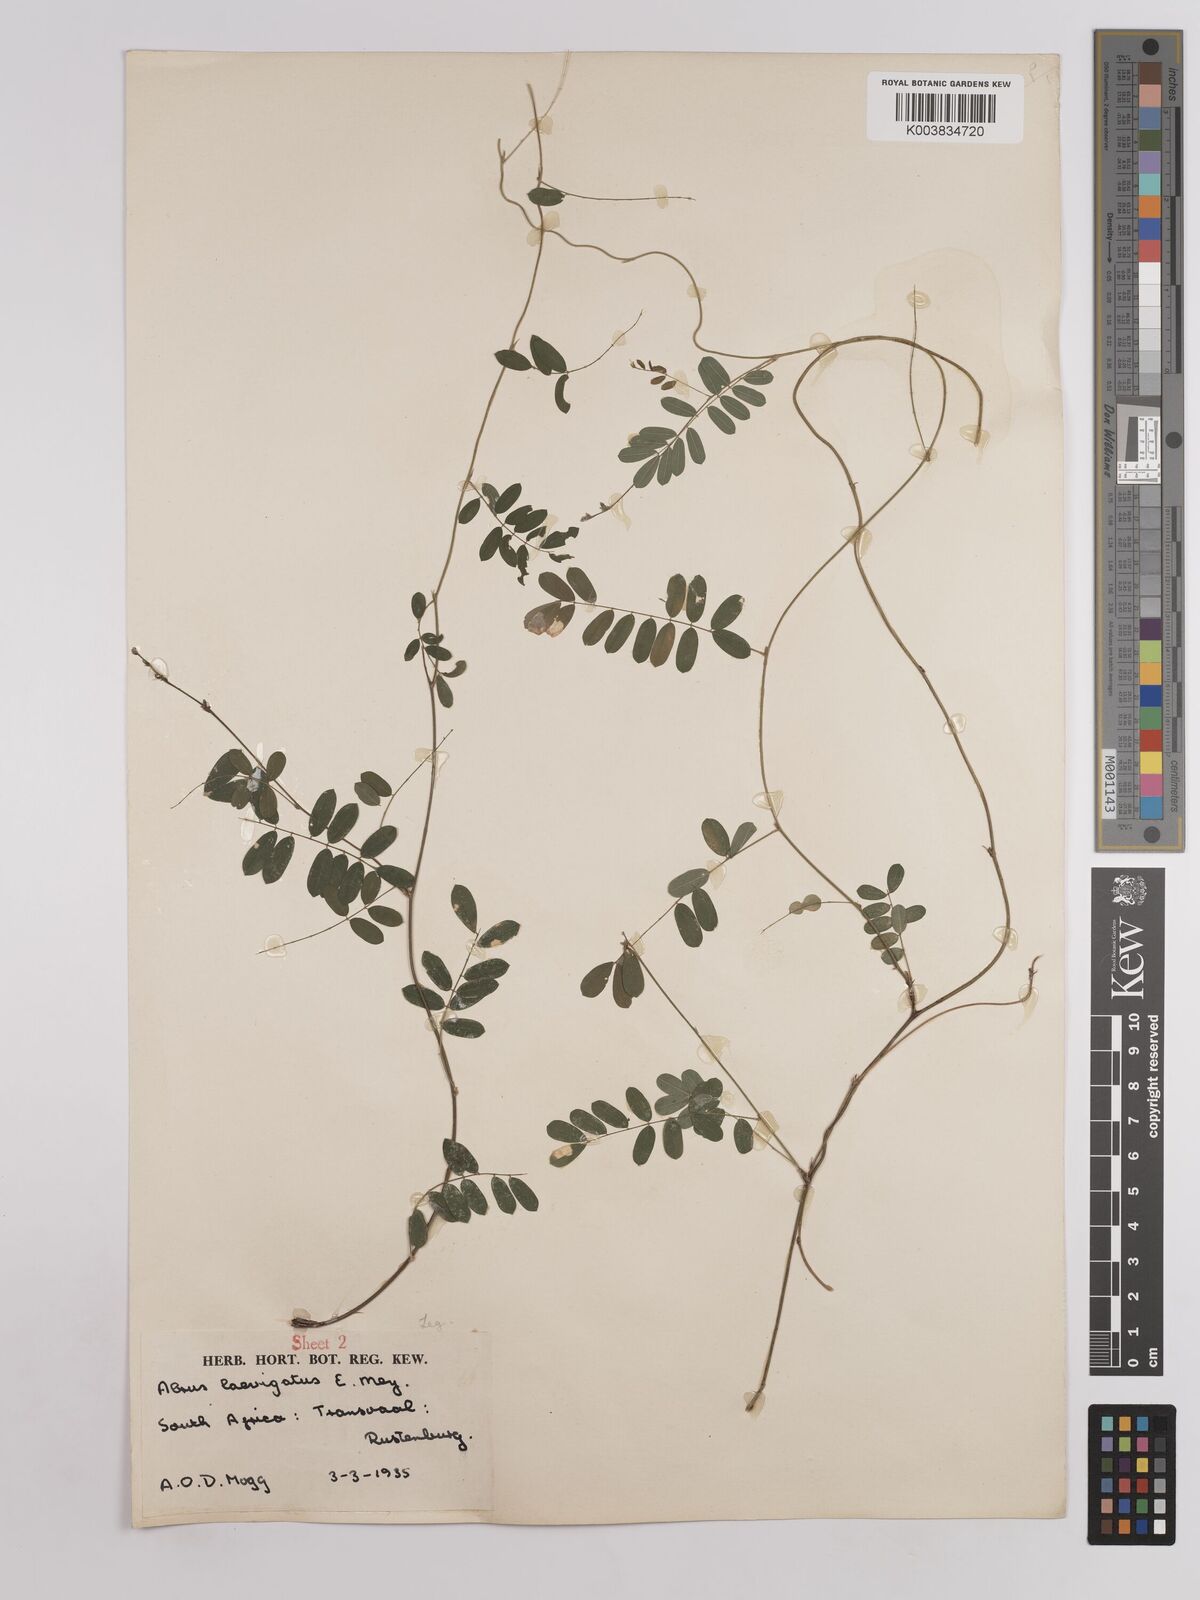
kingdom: Plantae
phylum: Tracheophyta
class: Magnoliopsida
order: Fabales
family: Fabaceae
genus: Abrus
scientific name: Abrus laevigatus
